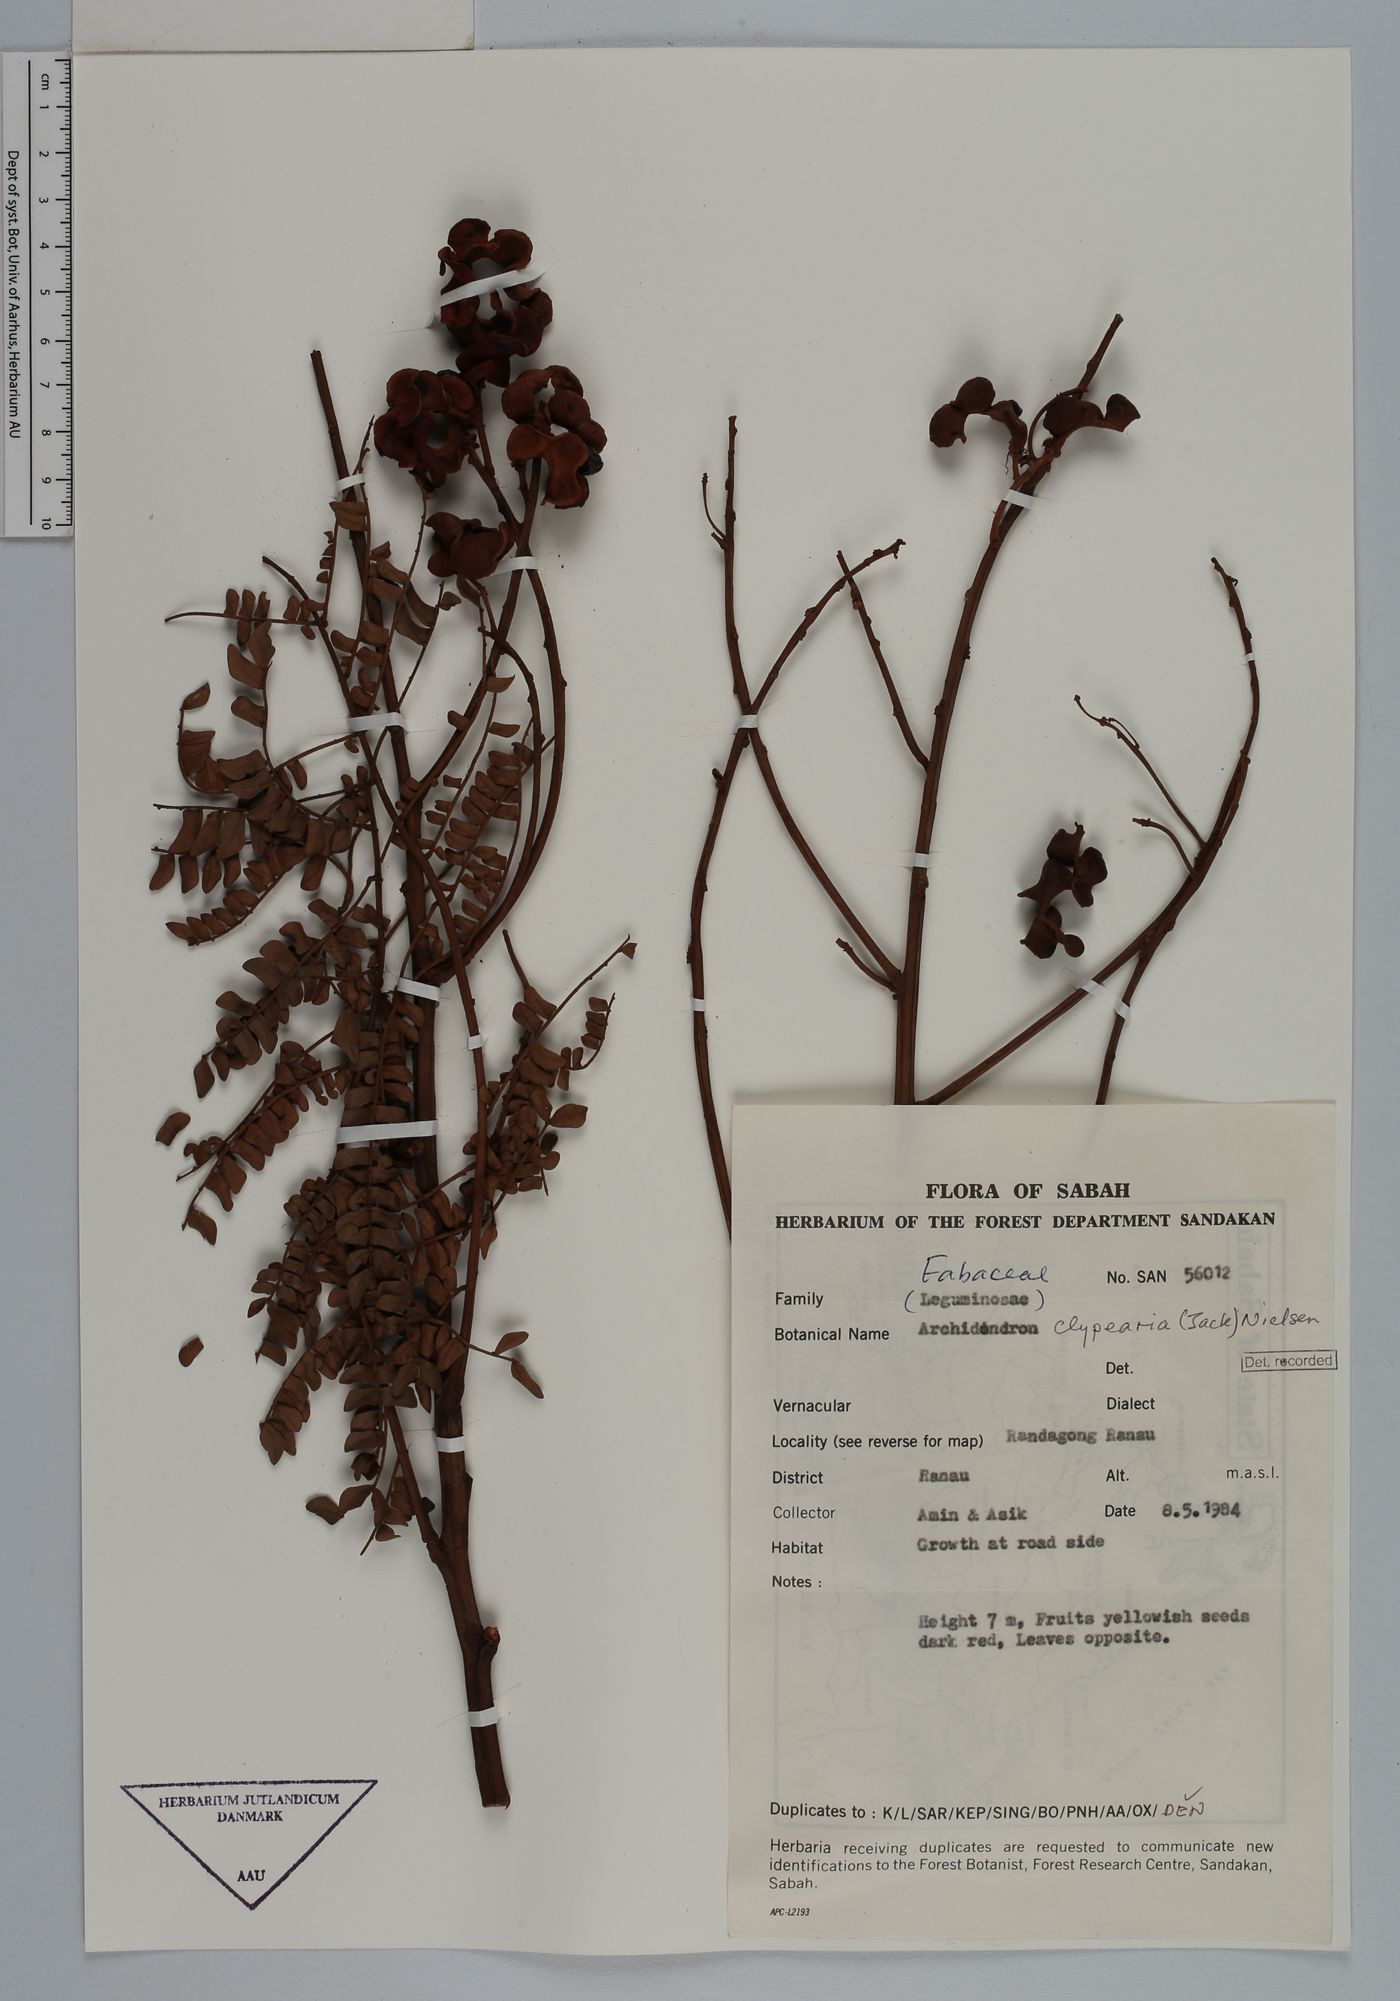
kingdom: Plantae
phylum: Tracheophyta
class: Magnoliopsida
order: Fabales
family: Fabaceae
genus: Archidendron
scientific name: Archidendron clypearia
